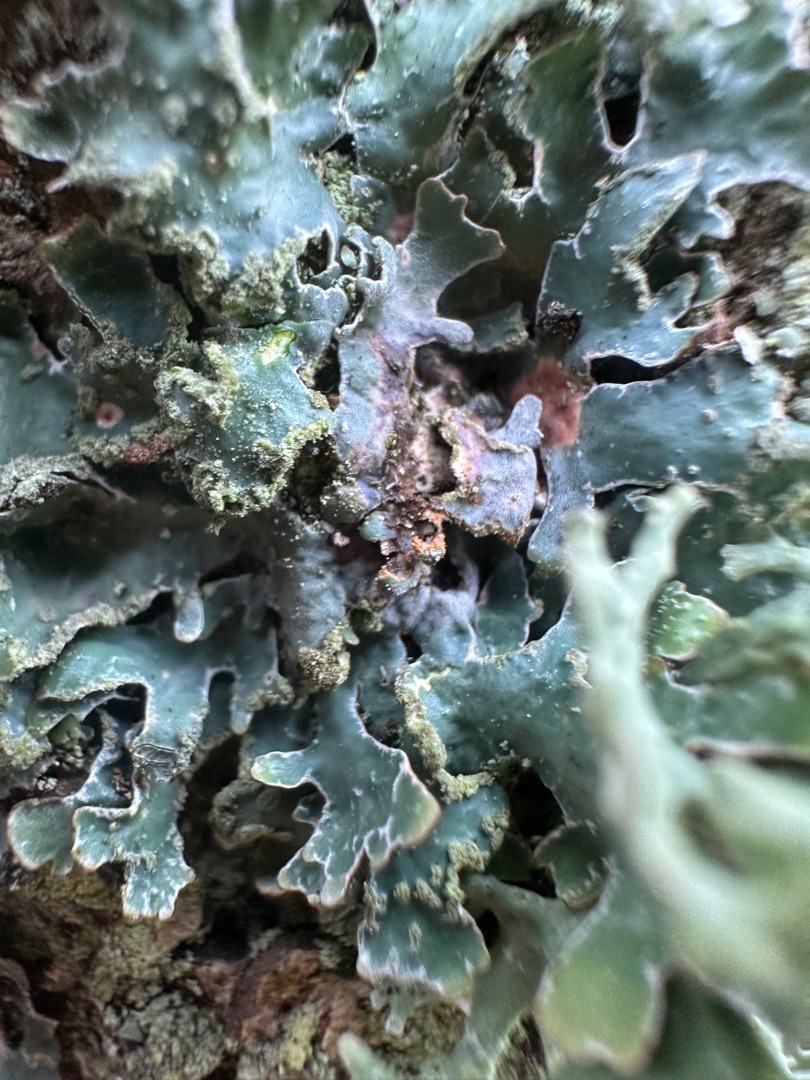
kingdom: Fungi
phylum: Ascomycota
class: Lecanoromycetes
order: Lecanorales
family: Parmeliaceae
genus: Parmelia
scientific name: Parmelia sulcata
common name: Rynket skållav
